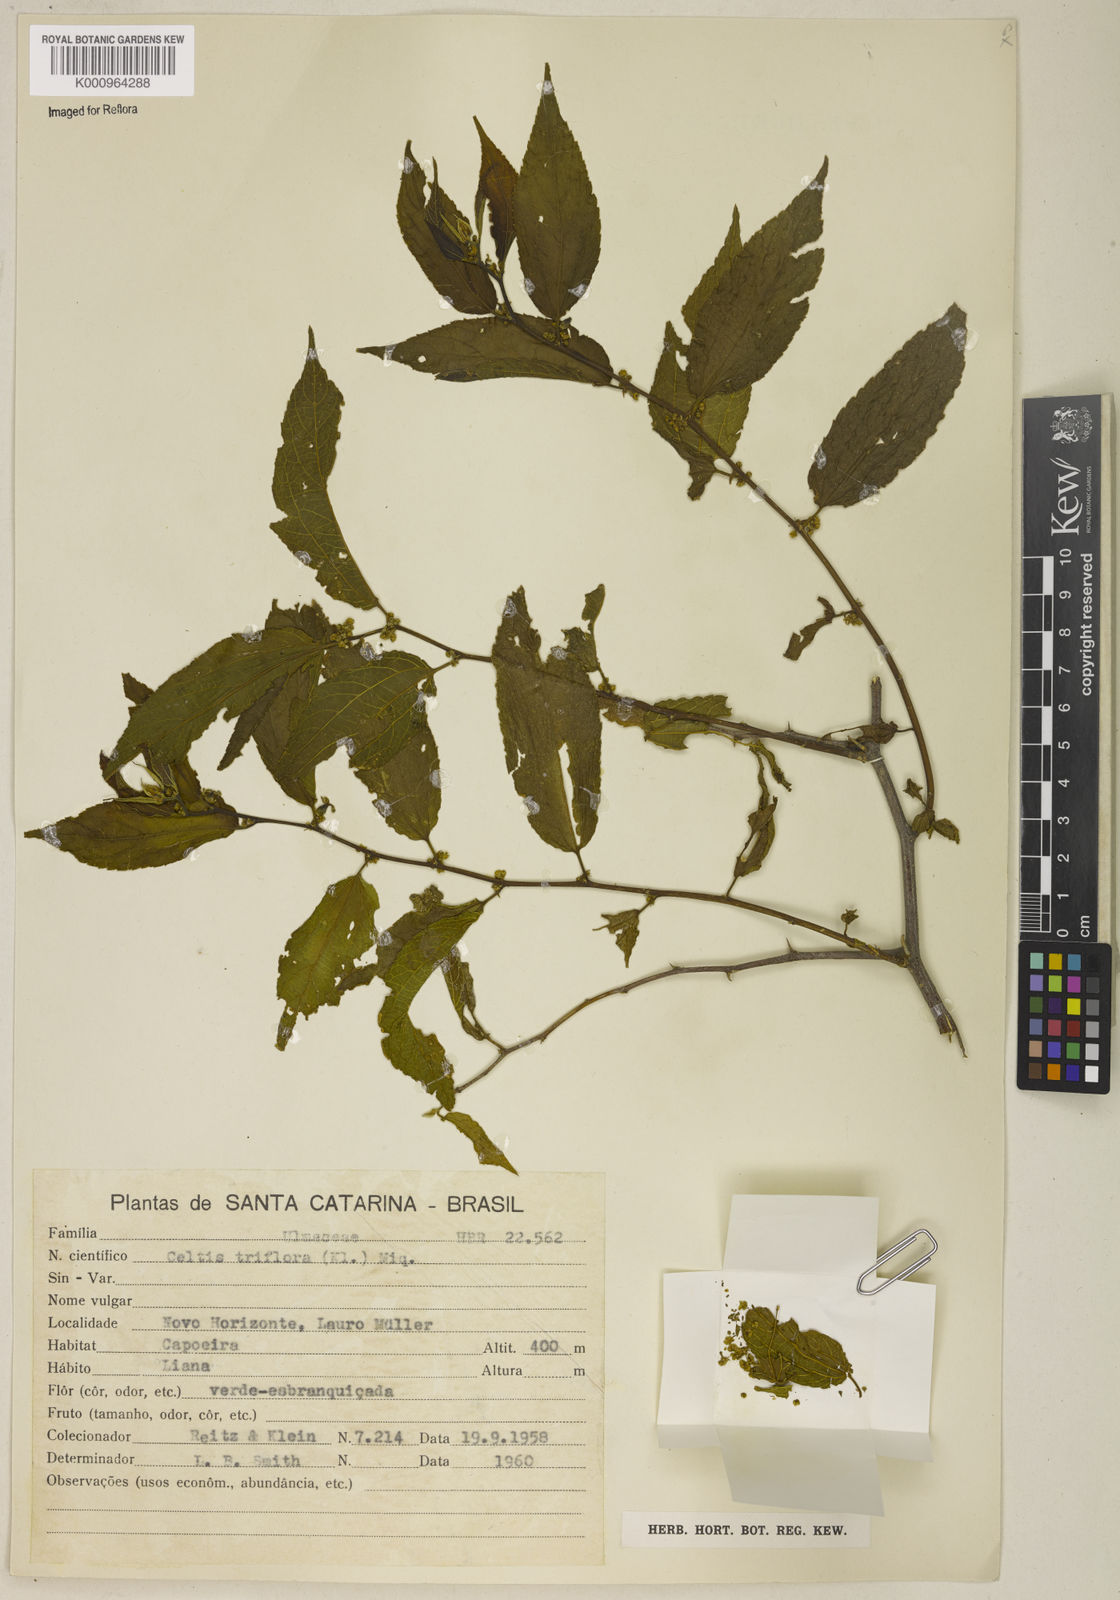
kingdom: Plantae
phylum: Tracheophyta
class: Magnoliopsida
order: Rosales
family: Cannabaceae
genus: Celtis
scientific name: Celtis iguanaea
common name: Iguana hackberry
